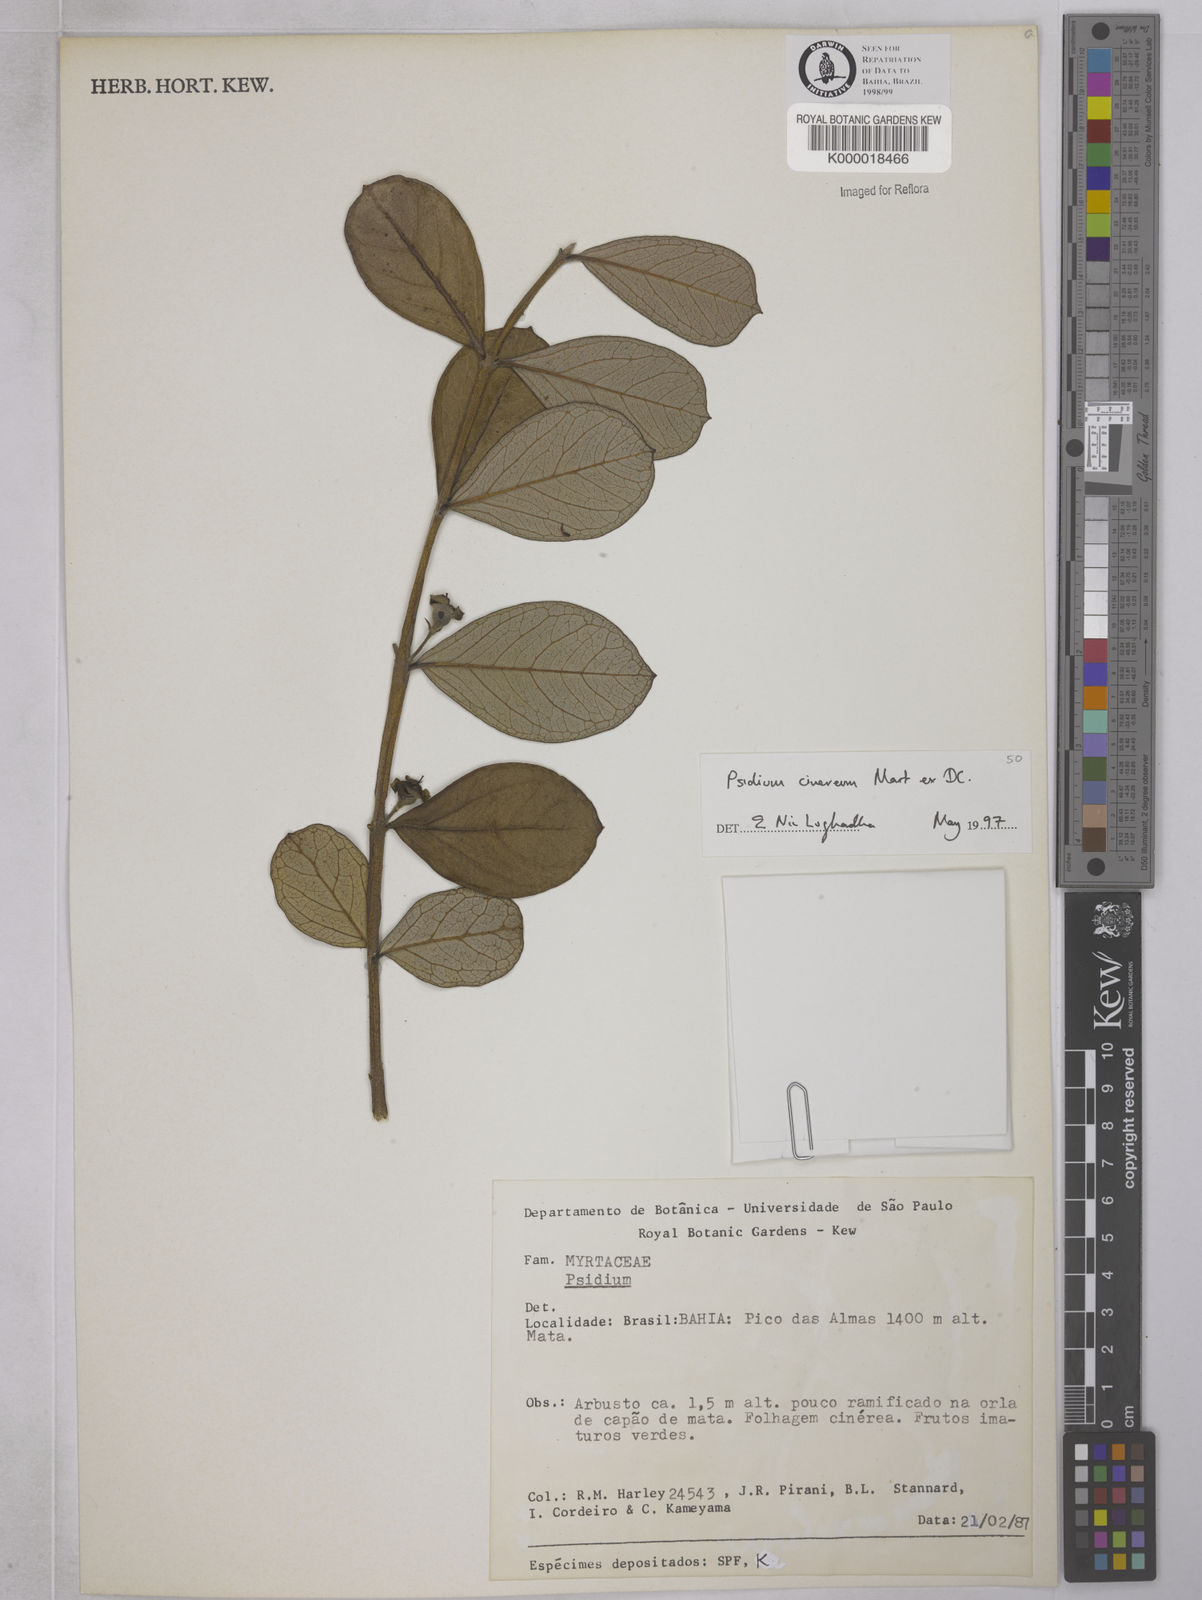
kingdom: Plantae
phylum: Tracheophyta
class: Magnoliopsida
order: Myrtales
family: Myrtaceae
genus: Psidium
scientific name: Psidium grandifolium
